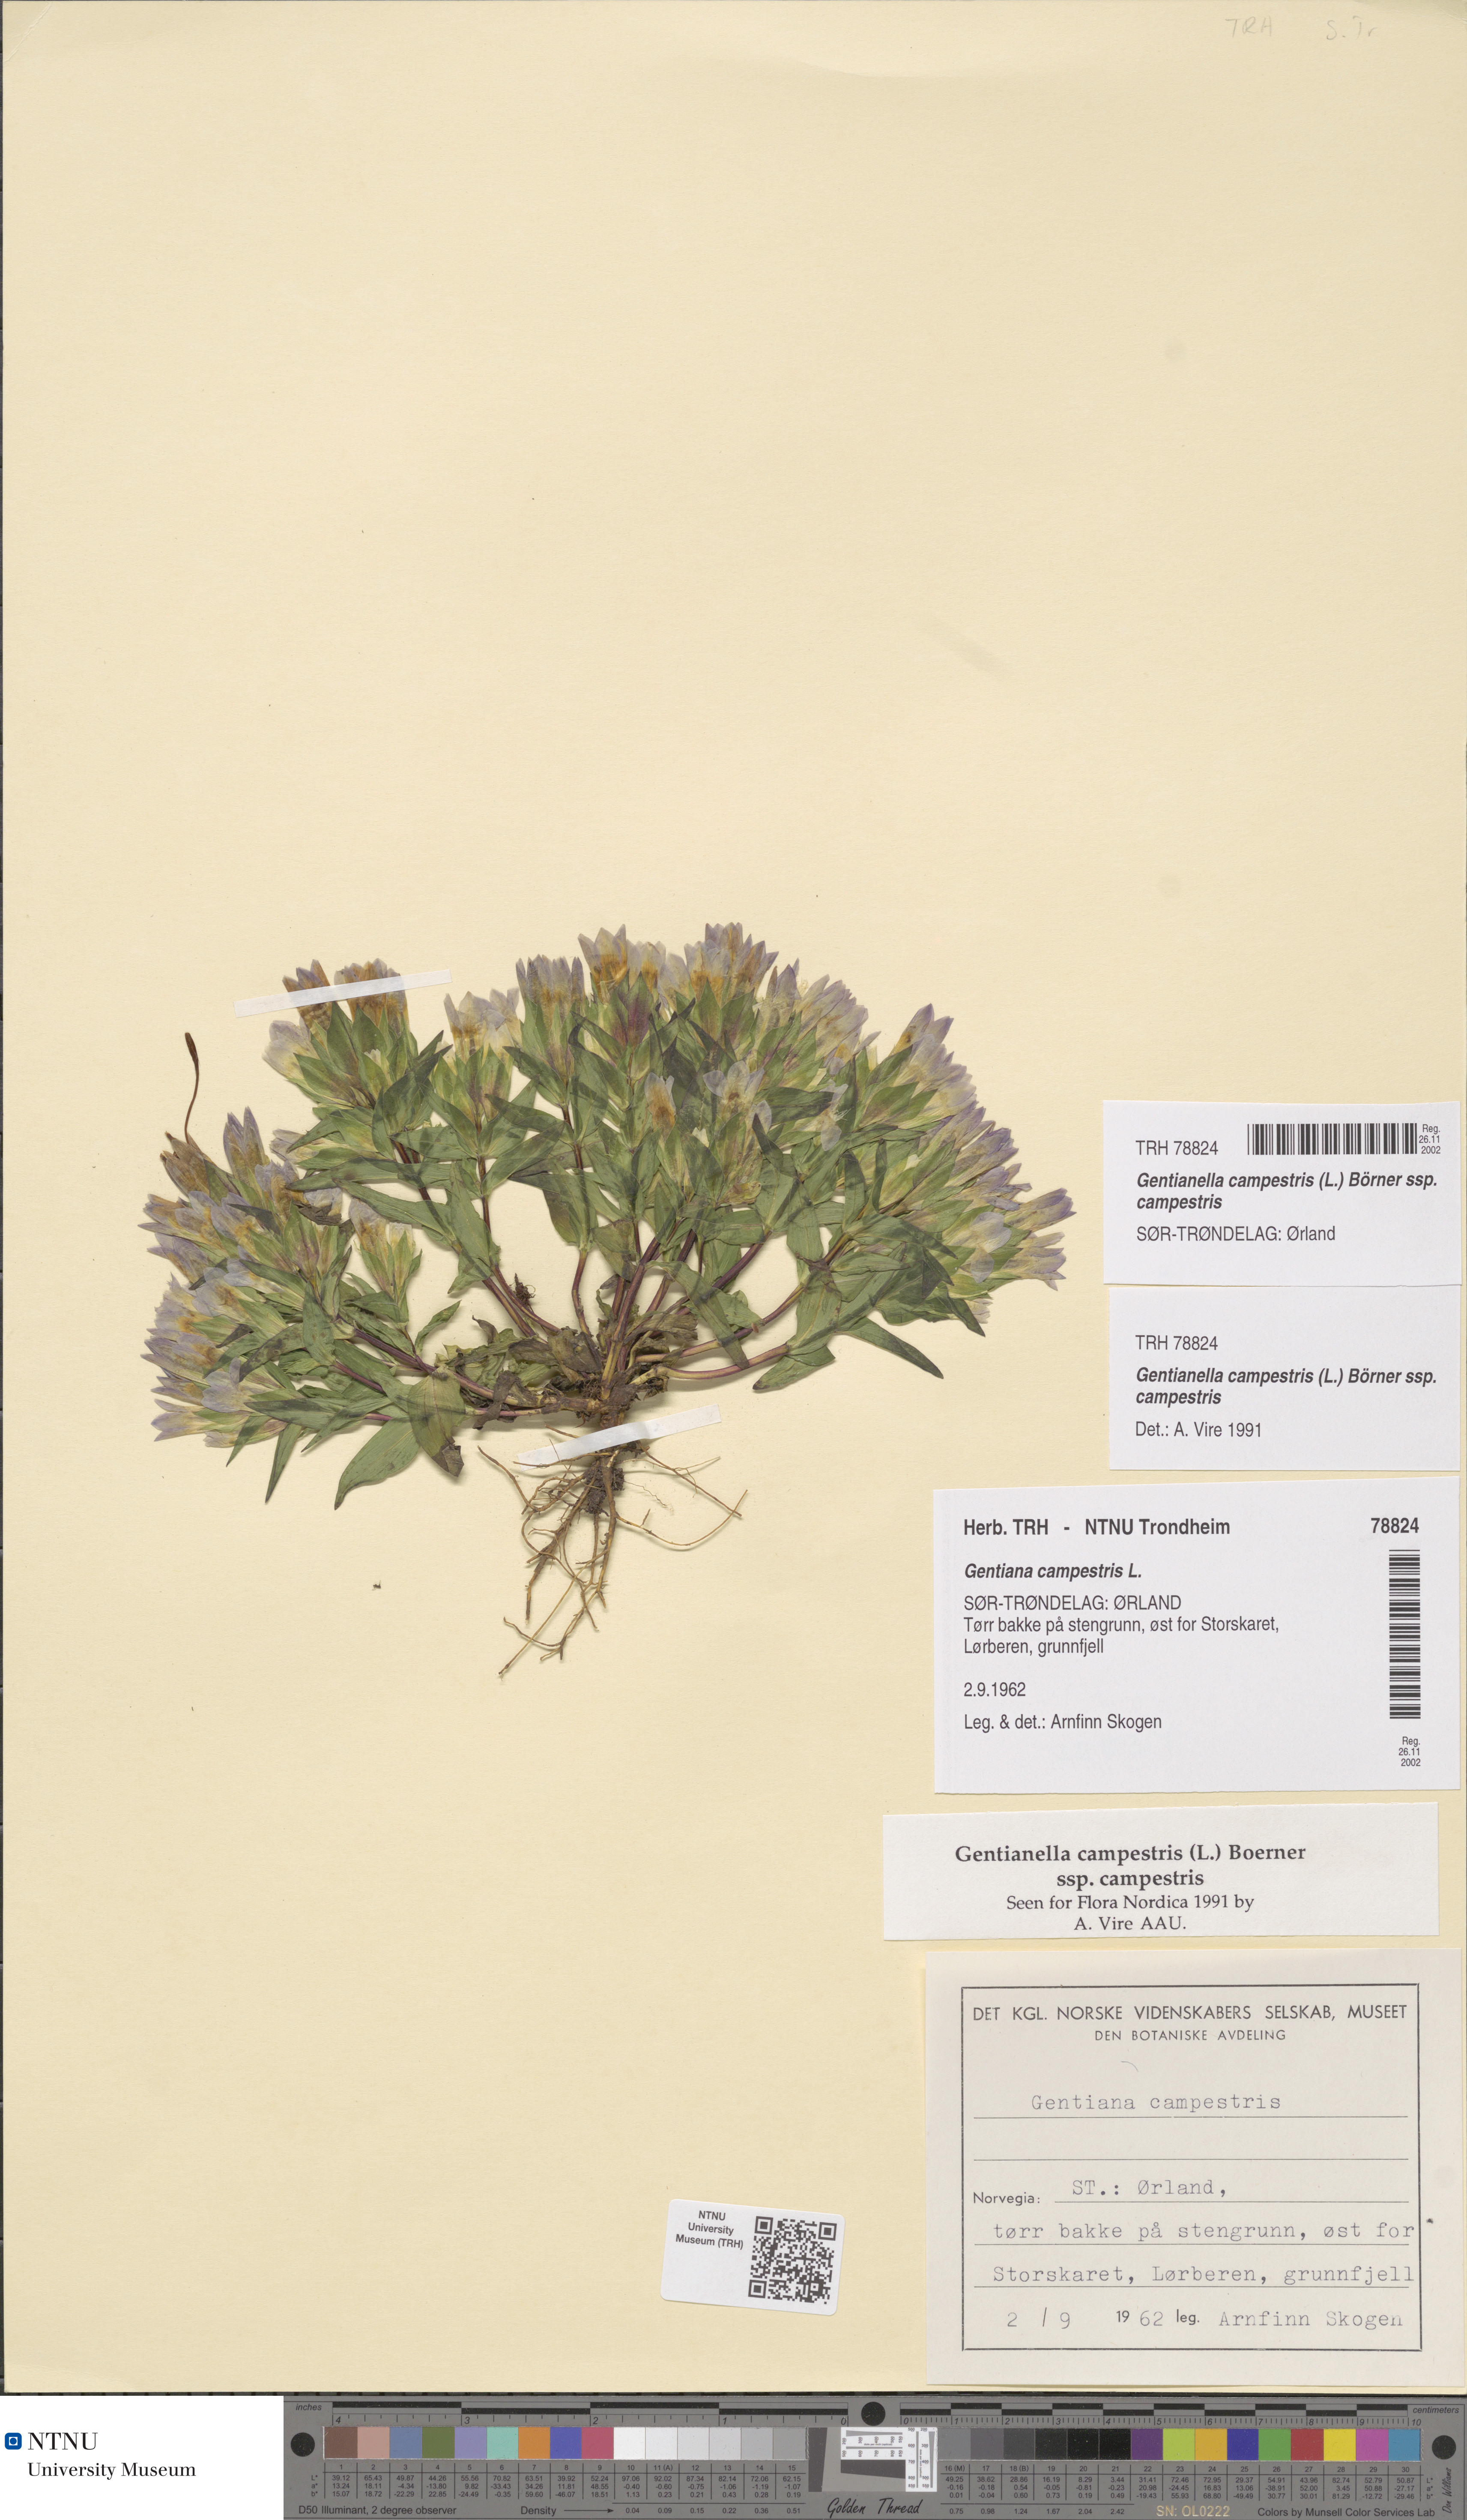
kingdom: Plantae
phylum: Tracheophyta
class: Magnoliopsida
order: Gentianales
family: Gentianaceae
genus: Gentianella
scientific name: Gentianella campestris
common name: Field gentian
